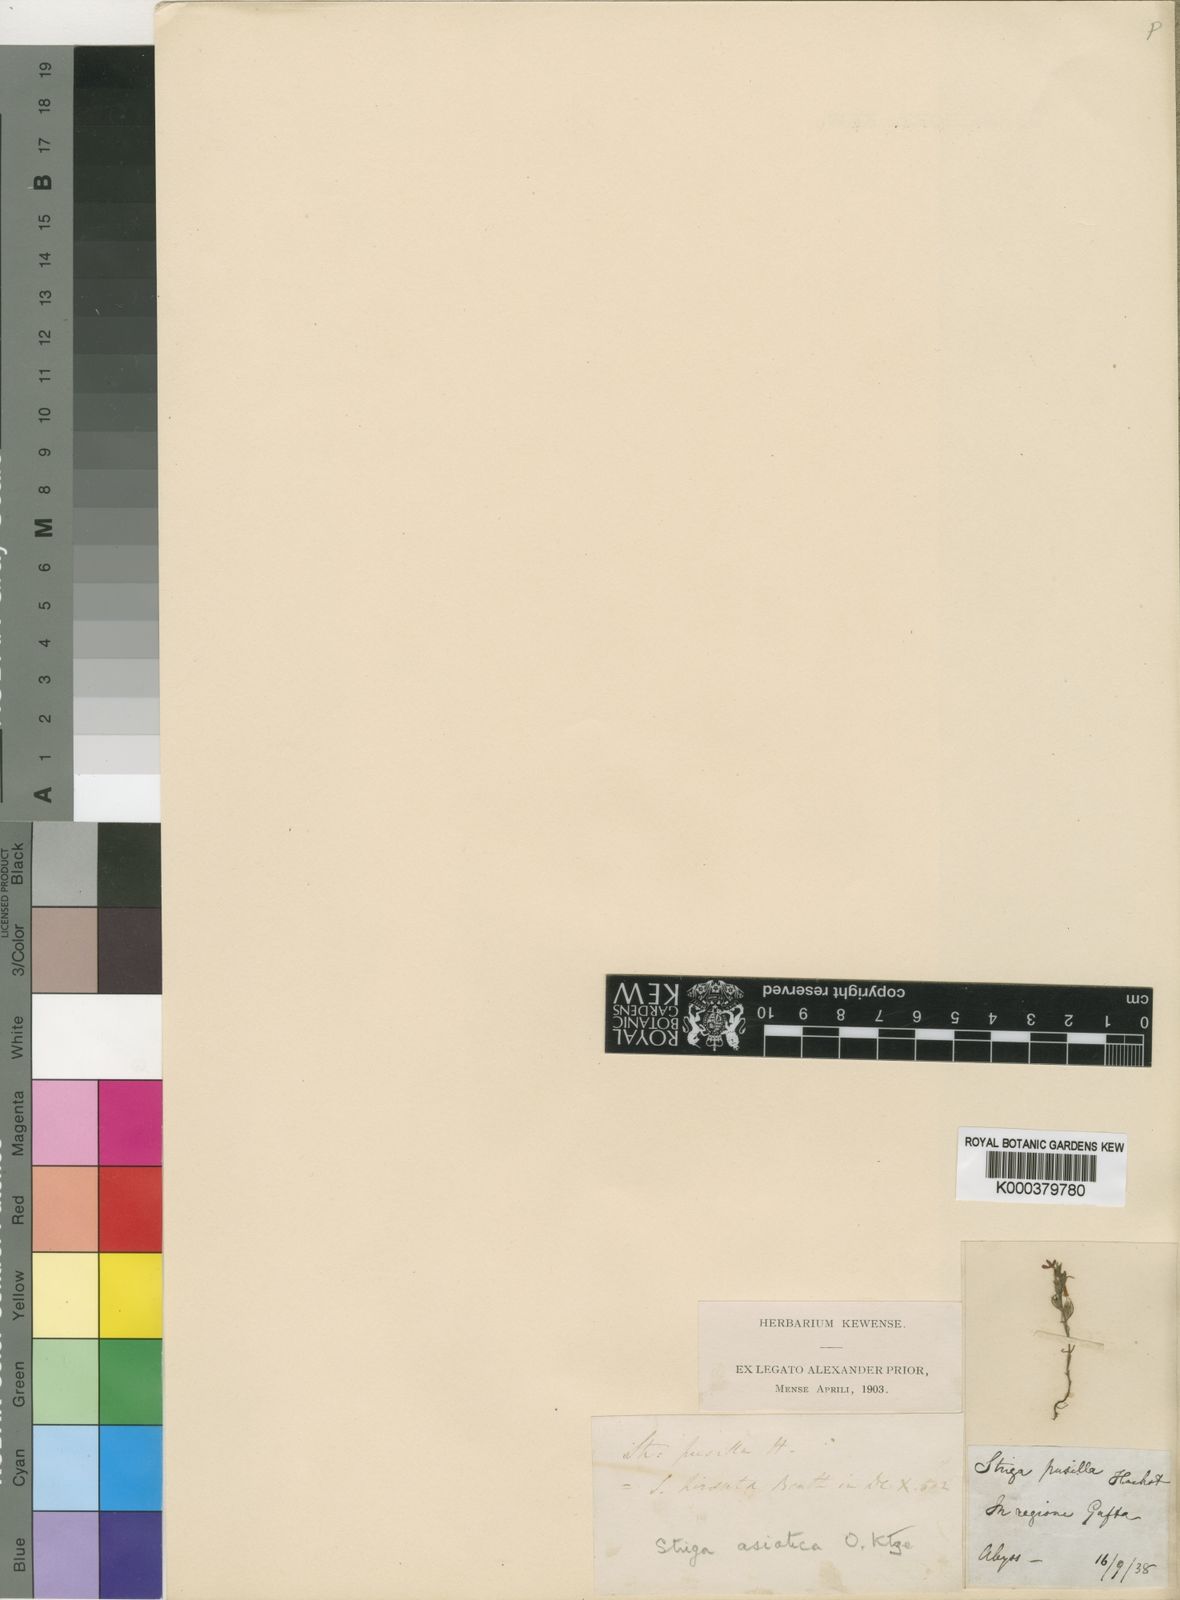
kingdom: Plantae
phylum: Tracheophyta
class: Magnoliopsida
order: Lamiales
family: Orobanchaceae
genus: Striga
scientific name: Striga asiatica
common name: Asiatic witchweed
